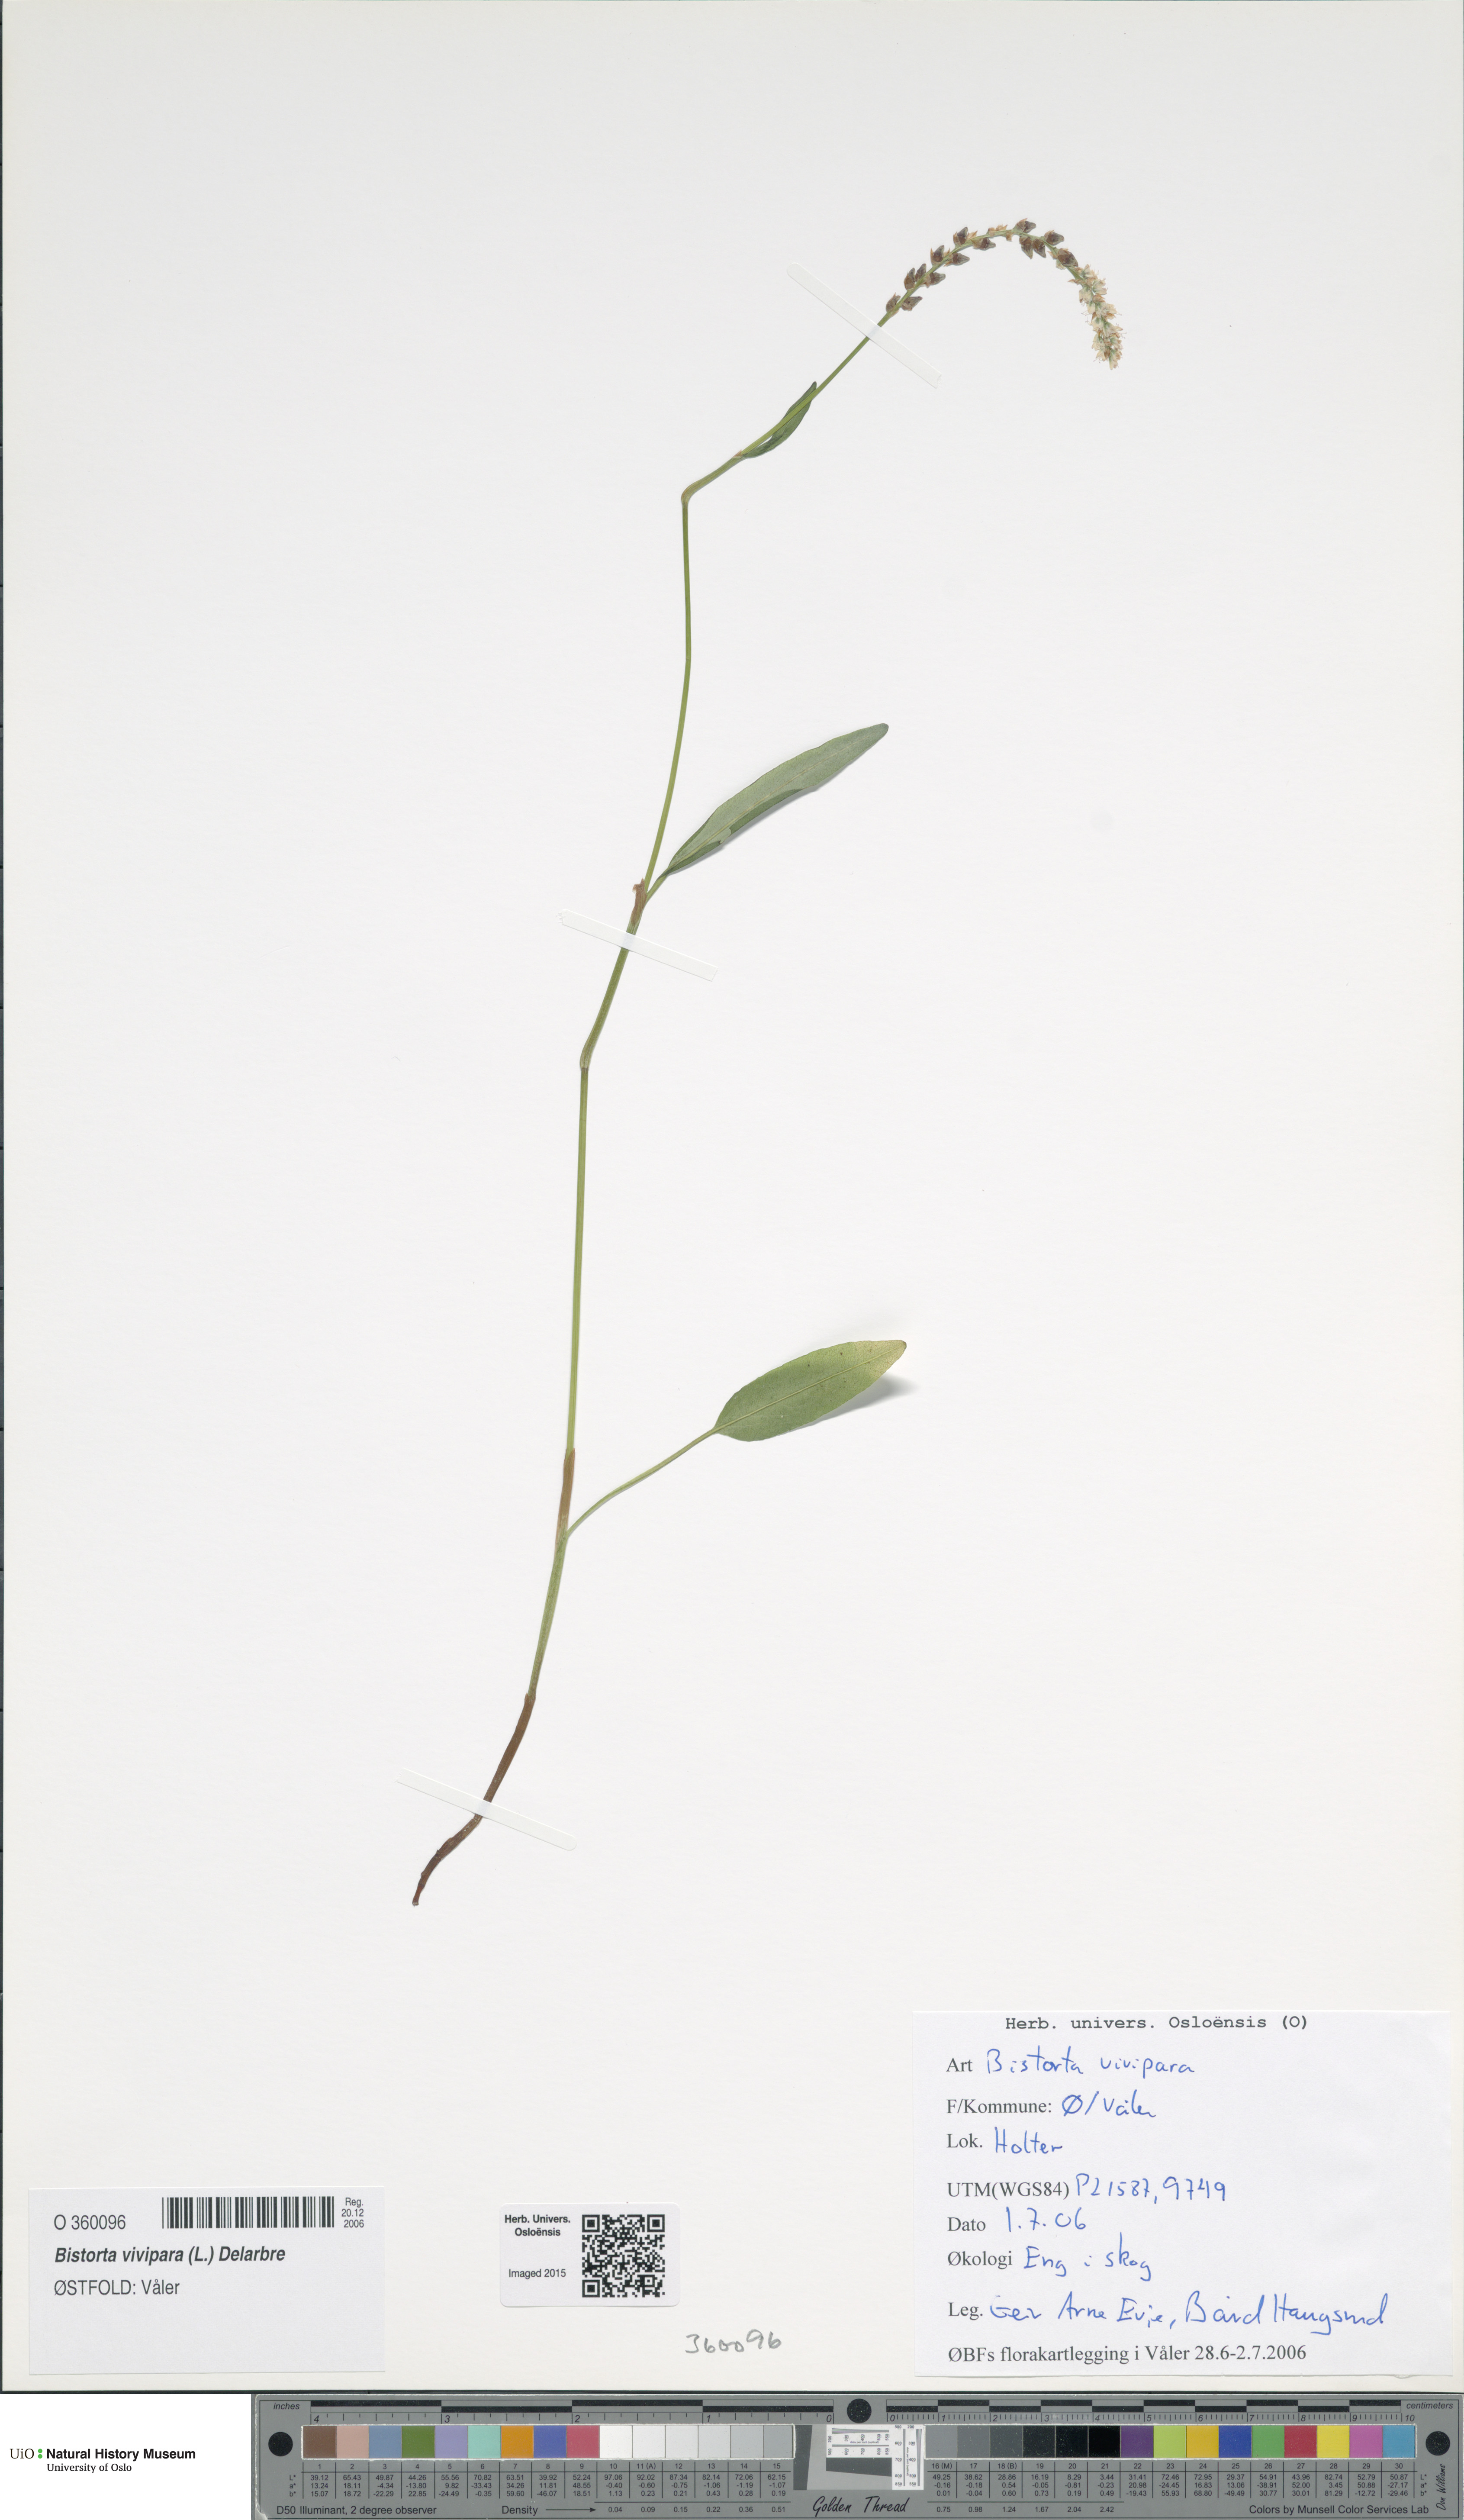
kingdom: Plantae
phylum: Tracheophyta
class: Magnoliopsida
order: Caryophyllales
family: Polygonaceae
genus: Bistorta
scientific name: Bistorta vivipara
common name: Alpine bistort
